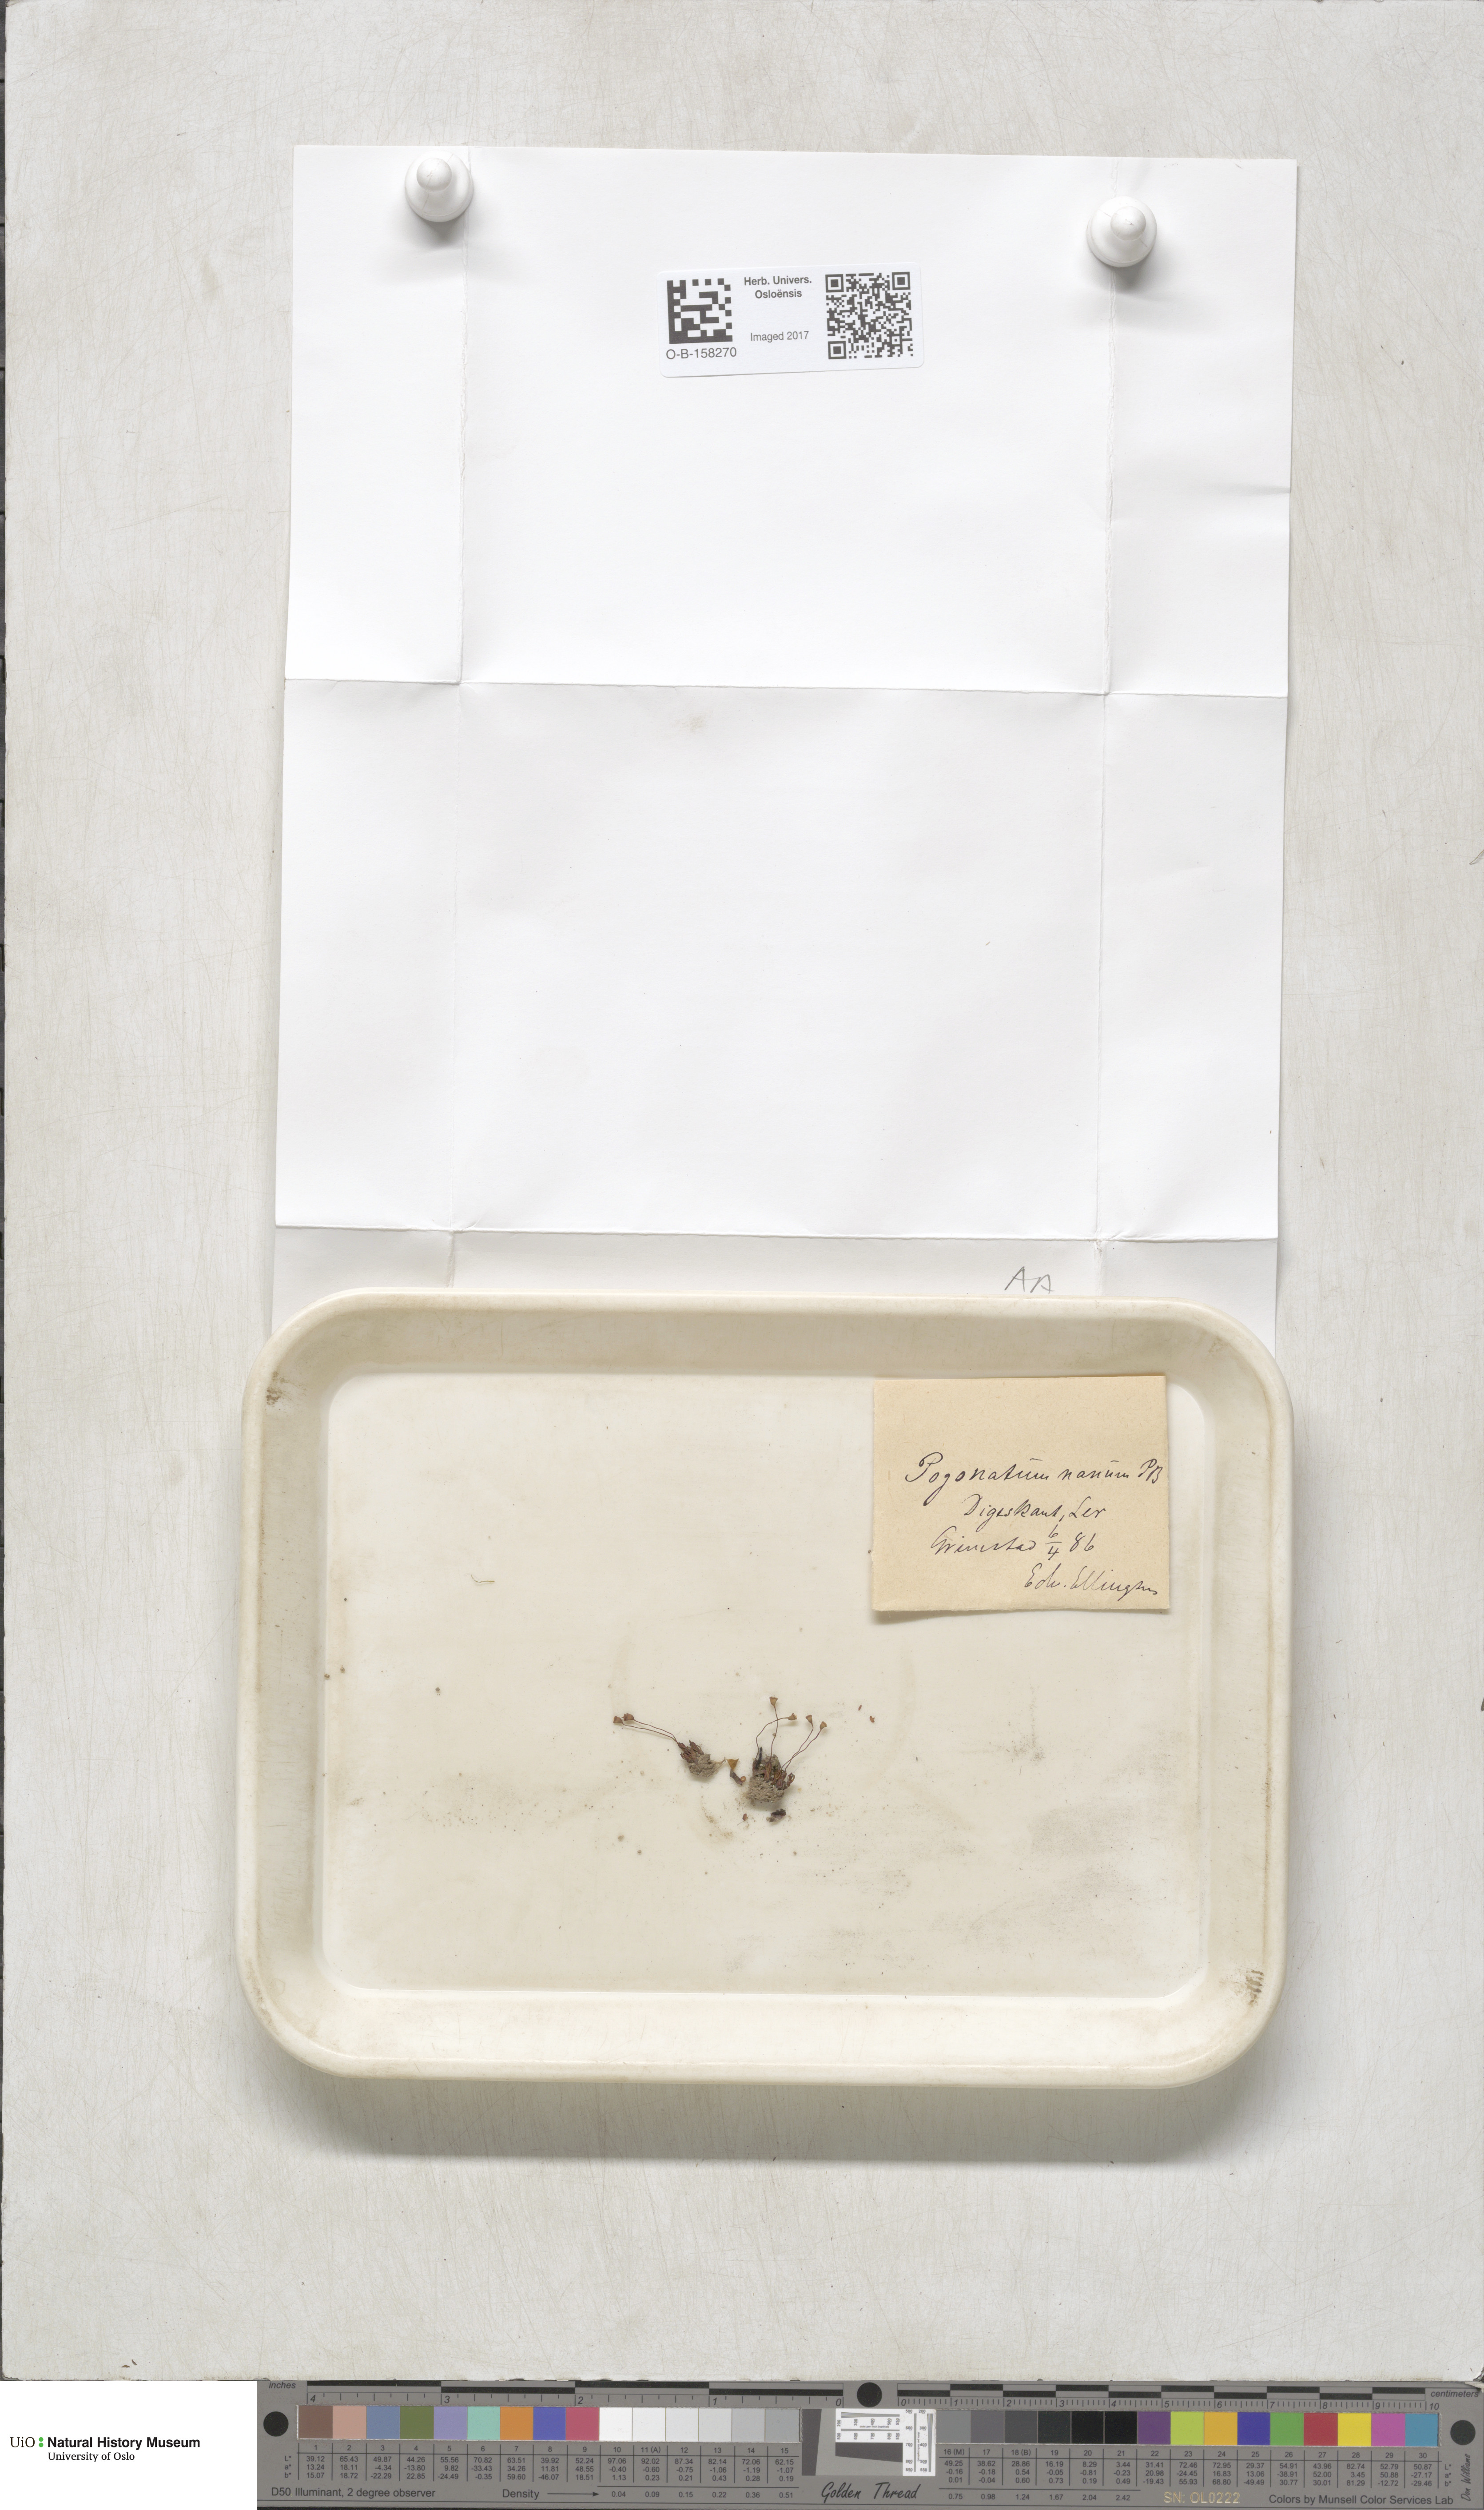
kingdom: Plantae
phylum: Bryophyta
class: Polytrichopsida
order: Polytrichales
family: Polytrichaceae
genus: Pogonatum
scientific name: Pogonatum nanum
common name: Dwarf haircap
